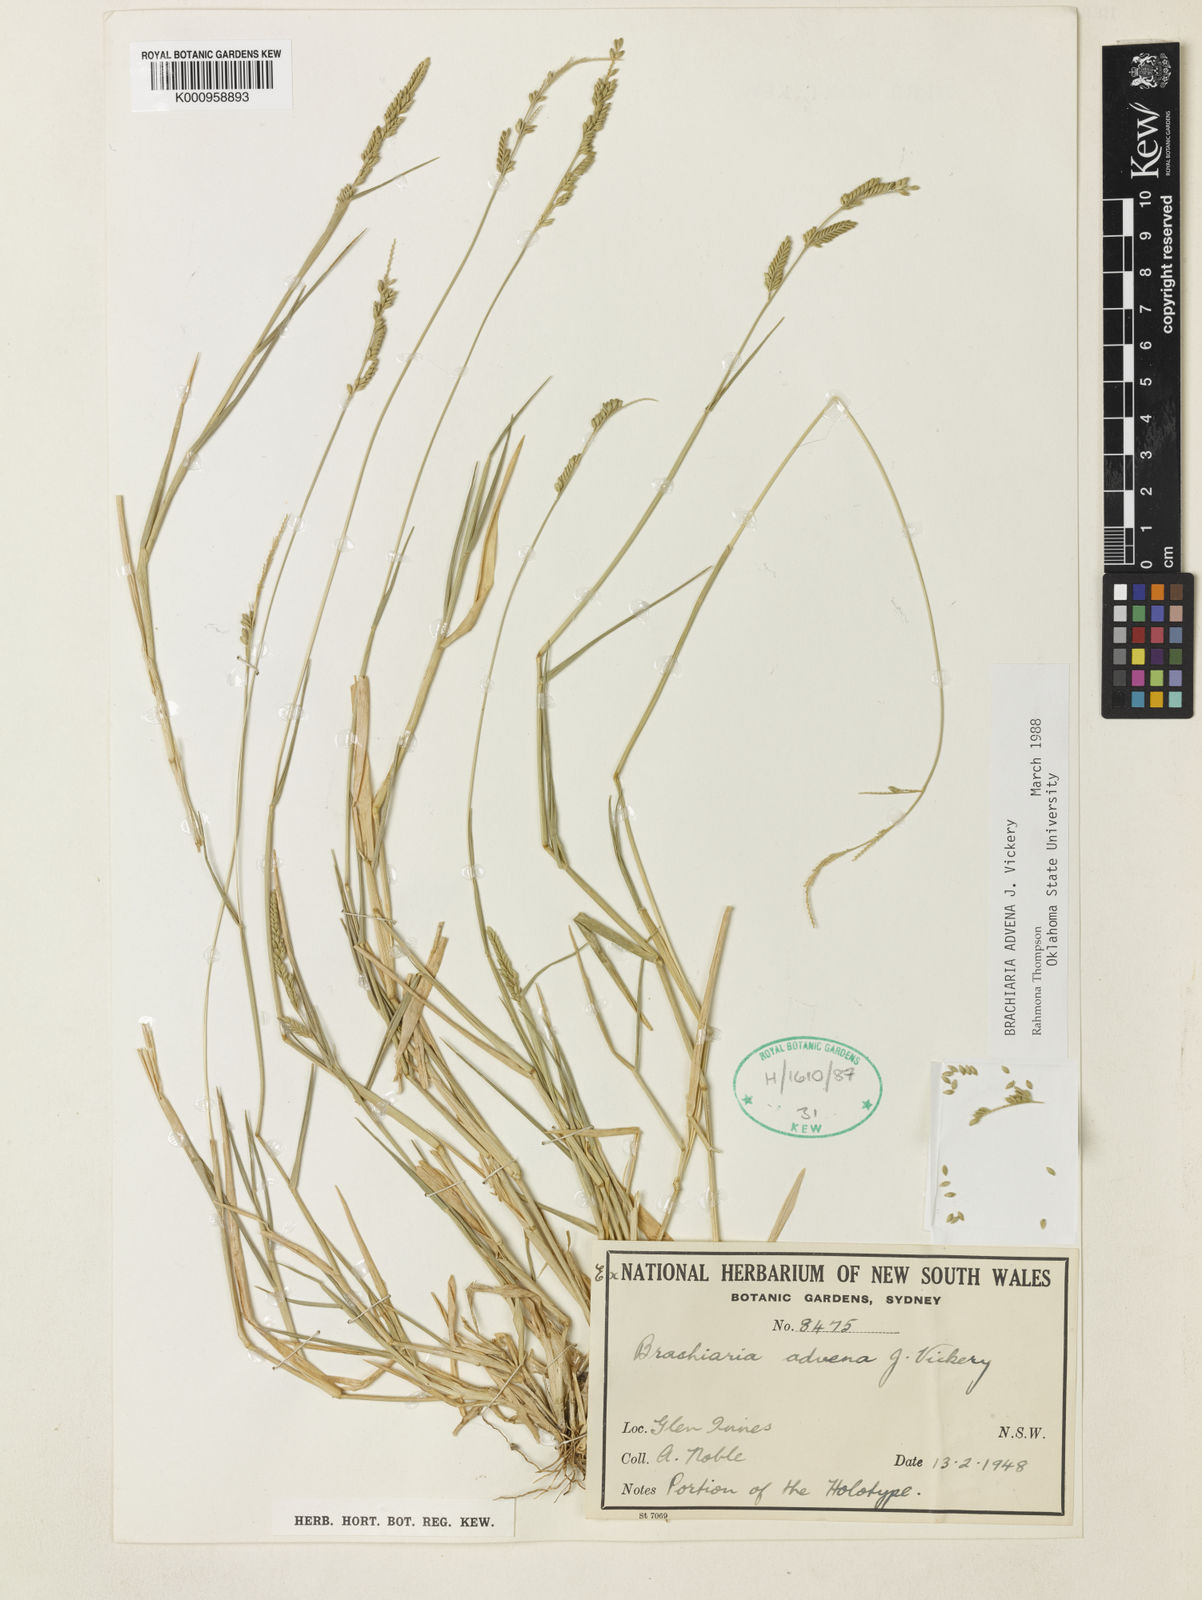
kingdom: Plantae
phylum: Tracheophyta
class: Liliopsida
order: Poales
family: Poaceae
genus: Urochloa
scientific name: Urochloa advena
